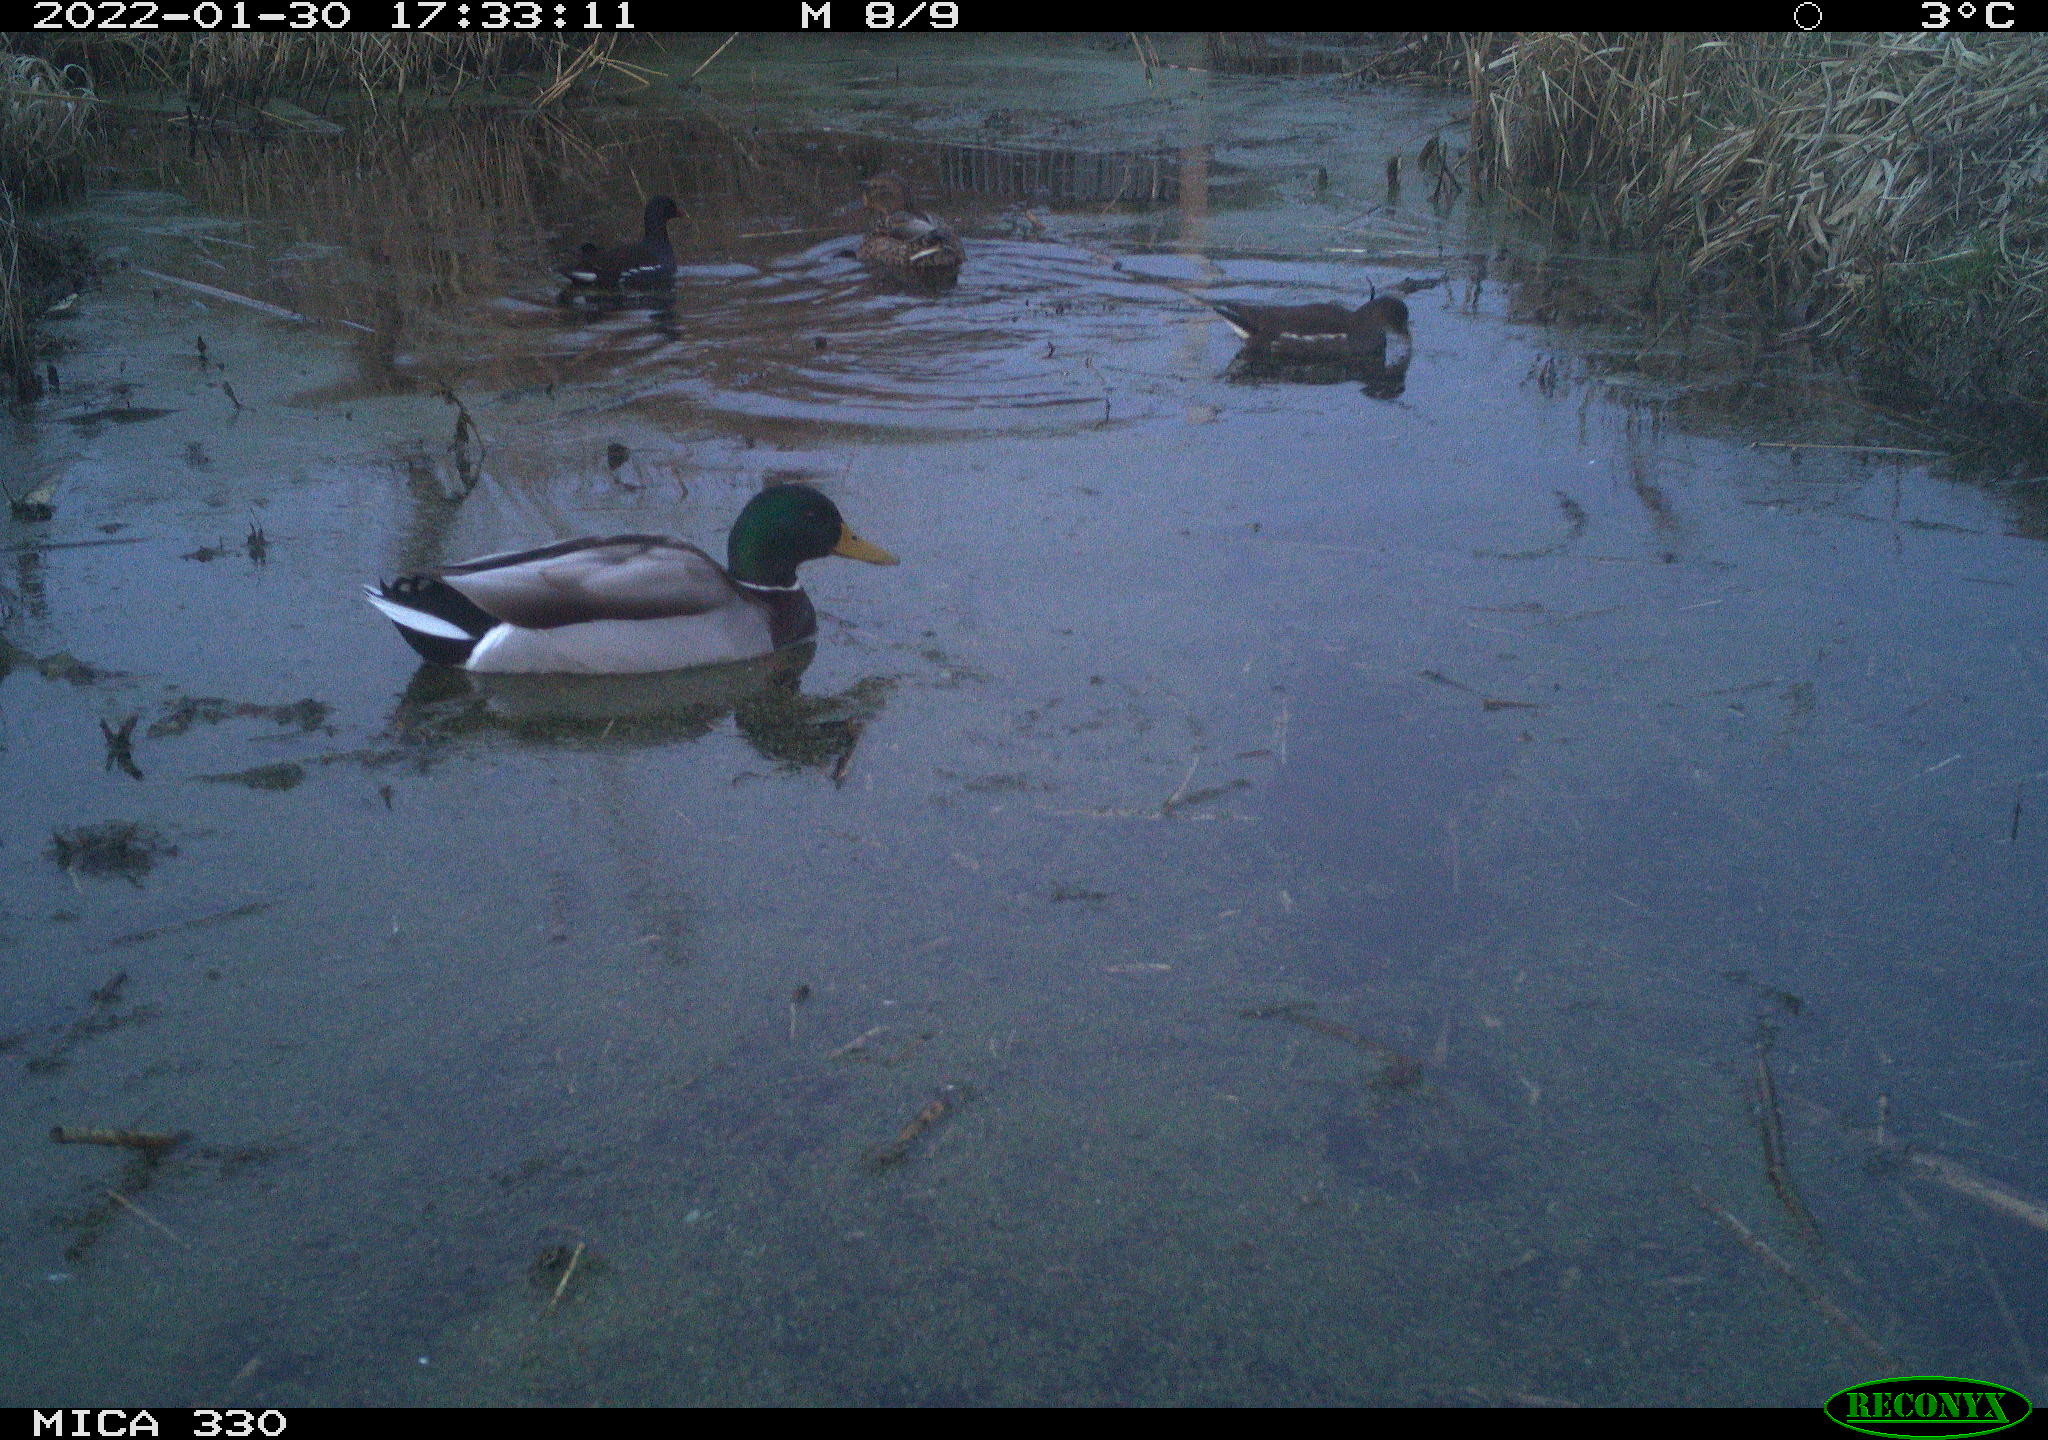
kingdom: Animalia
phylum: Chordata
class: Aves
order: Anseriformes
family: Anatidae
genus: Anas
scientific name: Anas platyrhynchos
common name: Mallard
